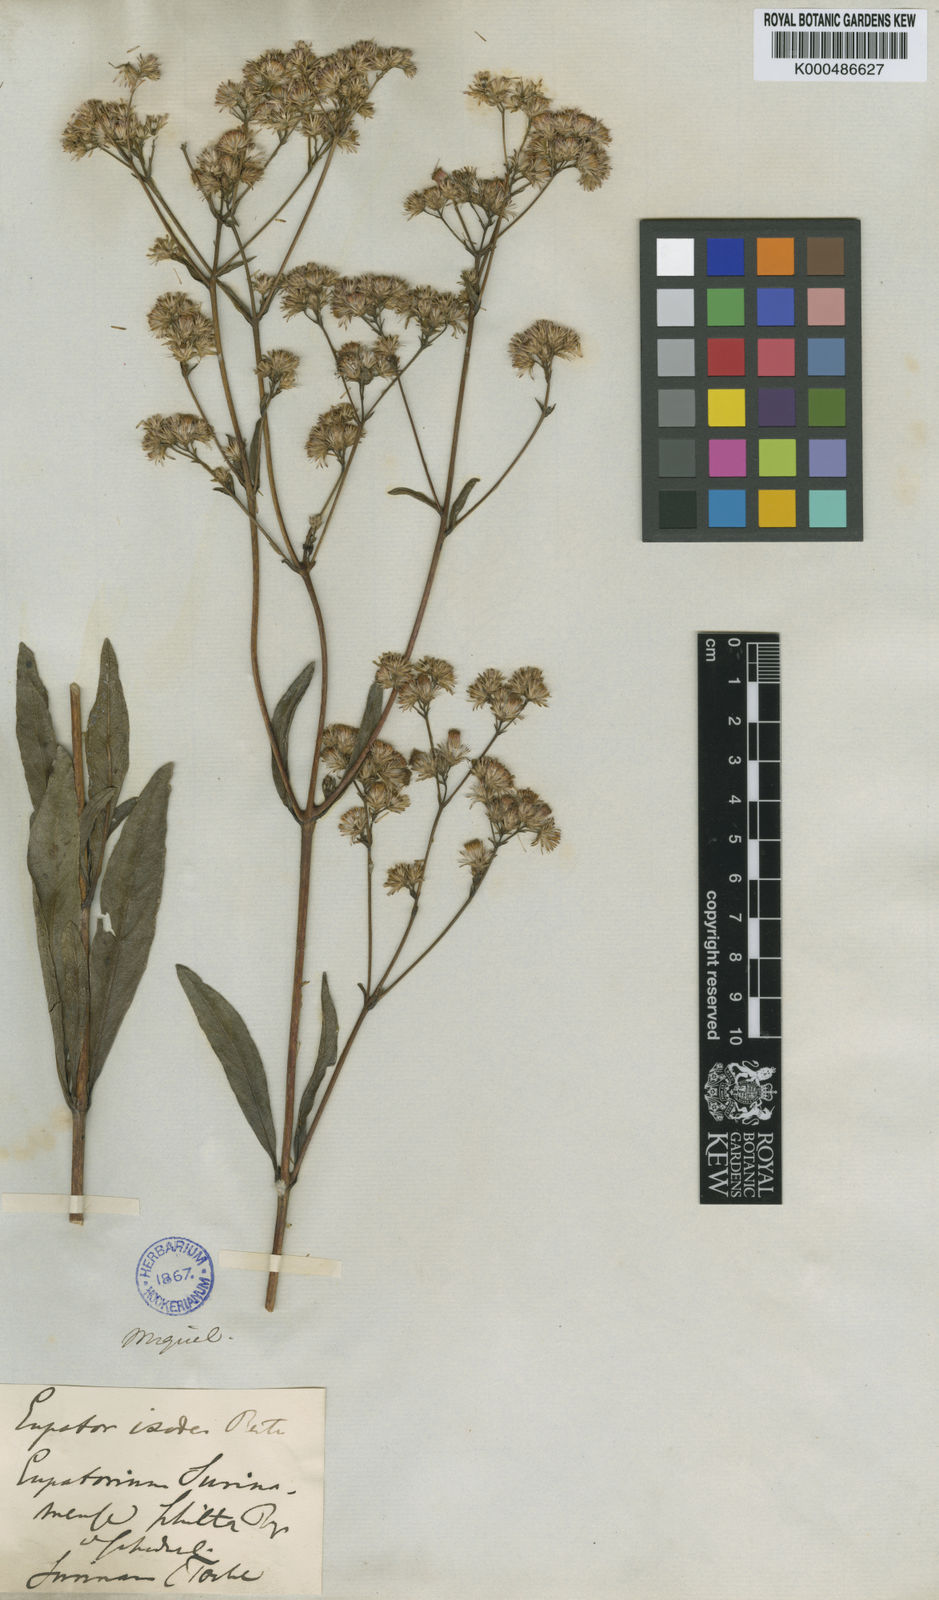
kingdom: Plantae
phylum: Tracheophyta
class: Magnoliopsida
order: Asterales
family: Asteraceae
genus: Ayapana
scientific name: Ayapana amygdalina
